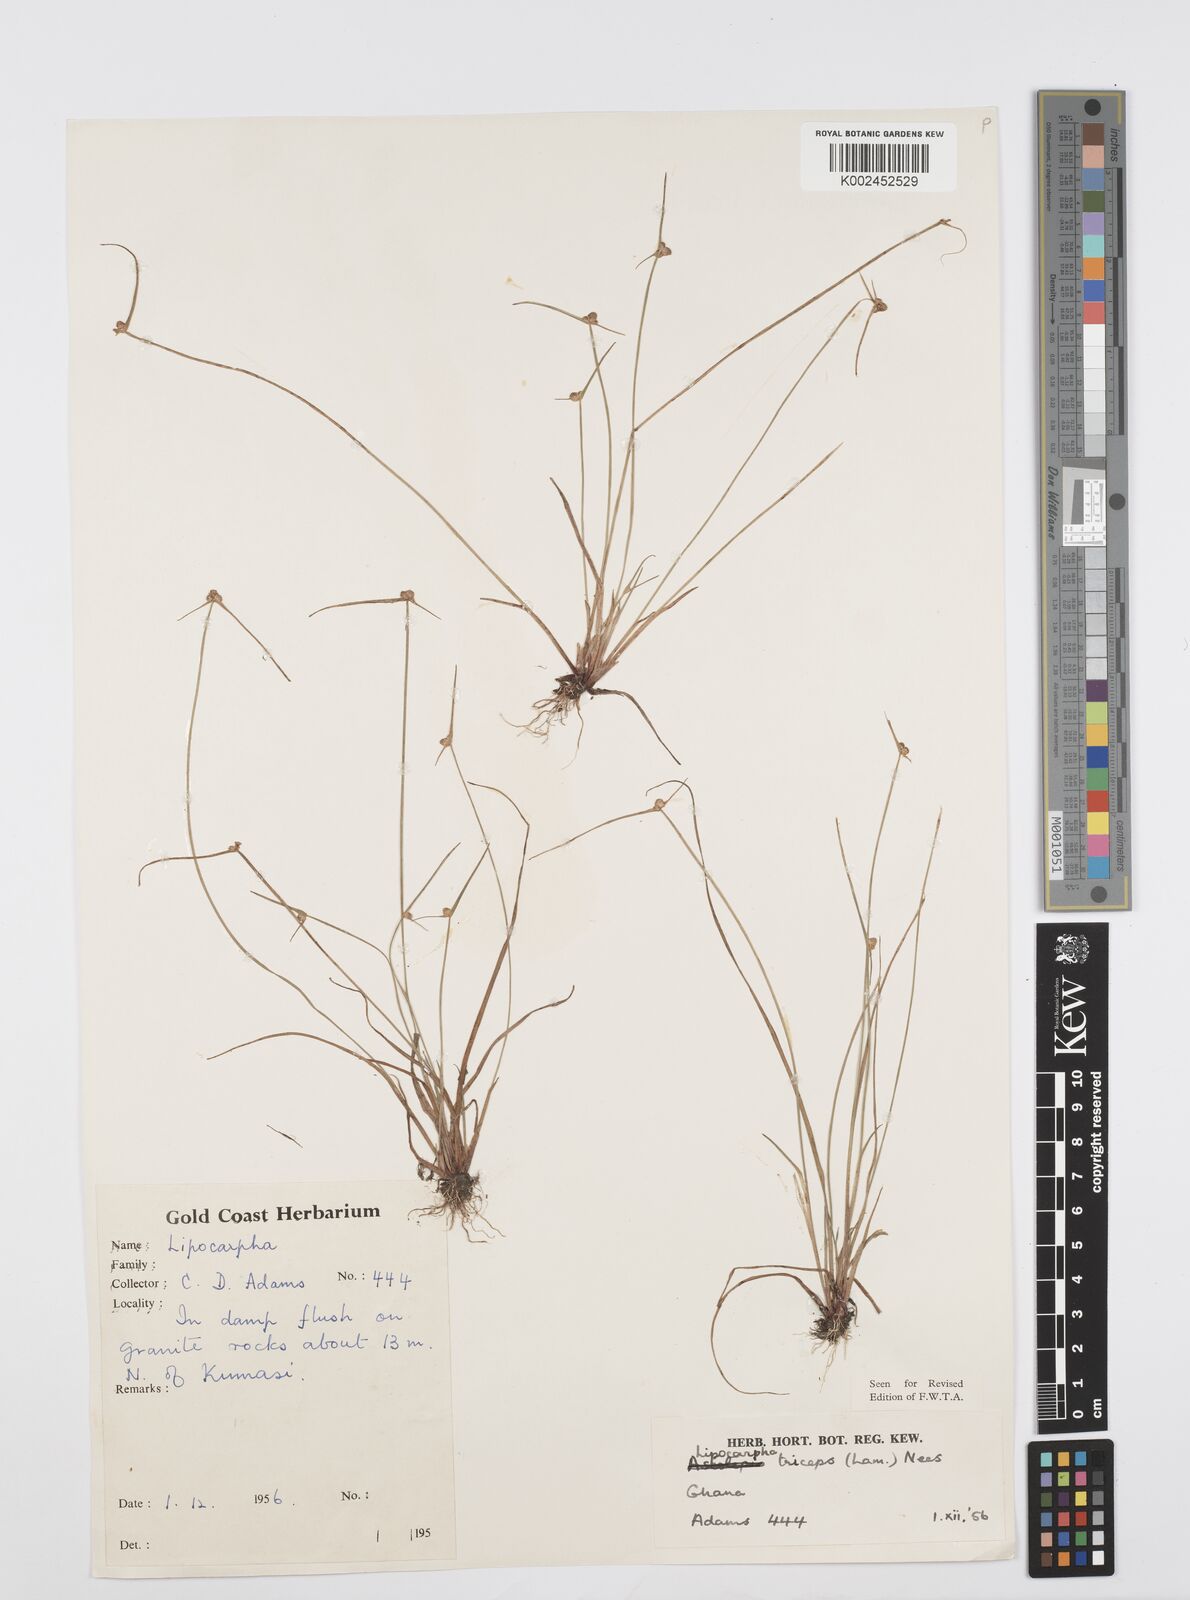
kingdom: Plantae
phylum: Tracheophyta
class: Liliopsida
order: Poales
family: Cyperaceae
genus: Cyperus
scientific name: Cyperus filiformis
